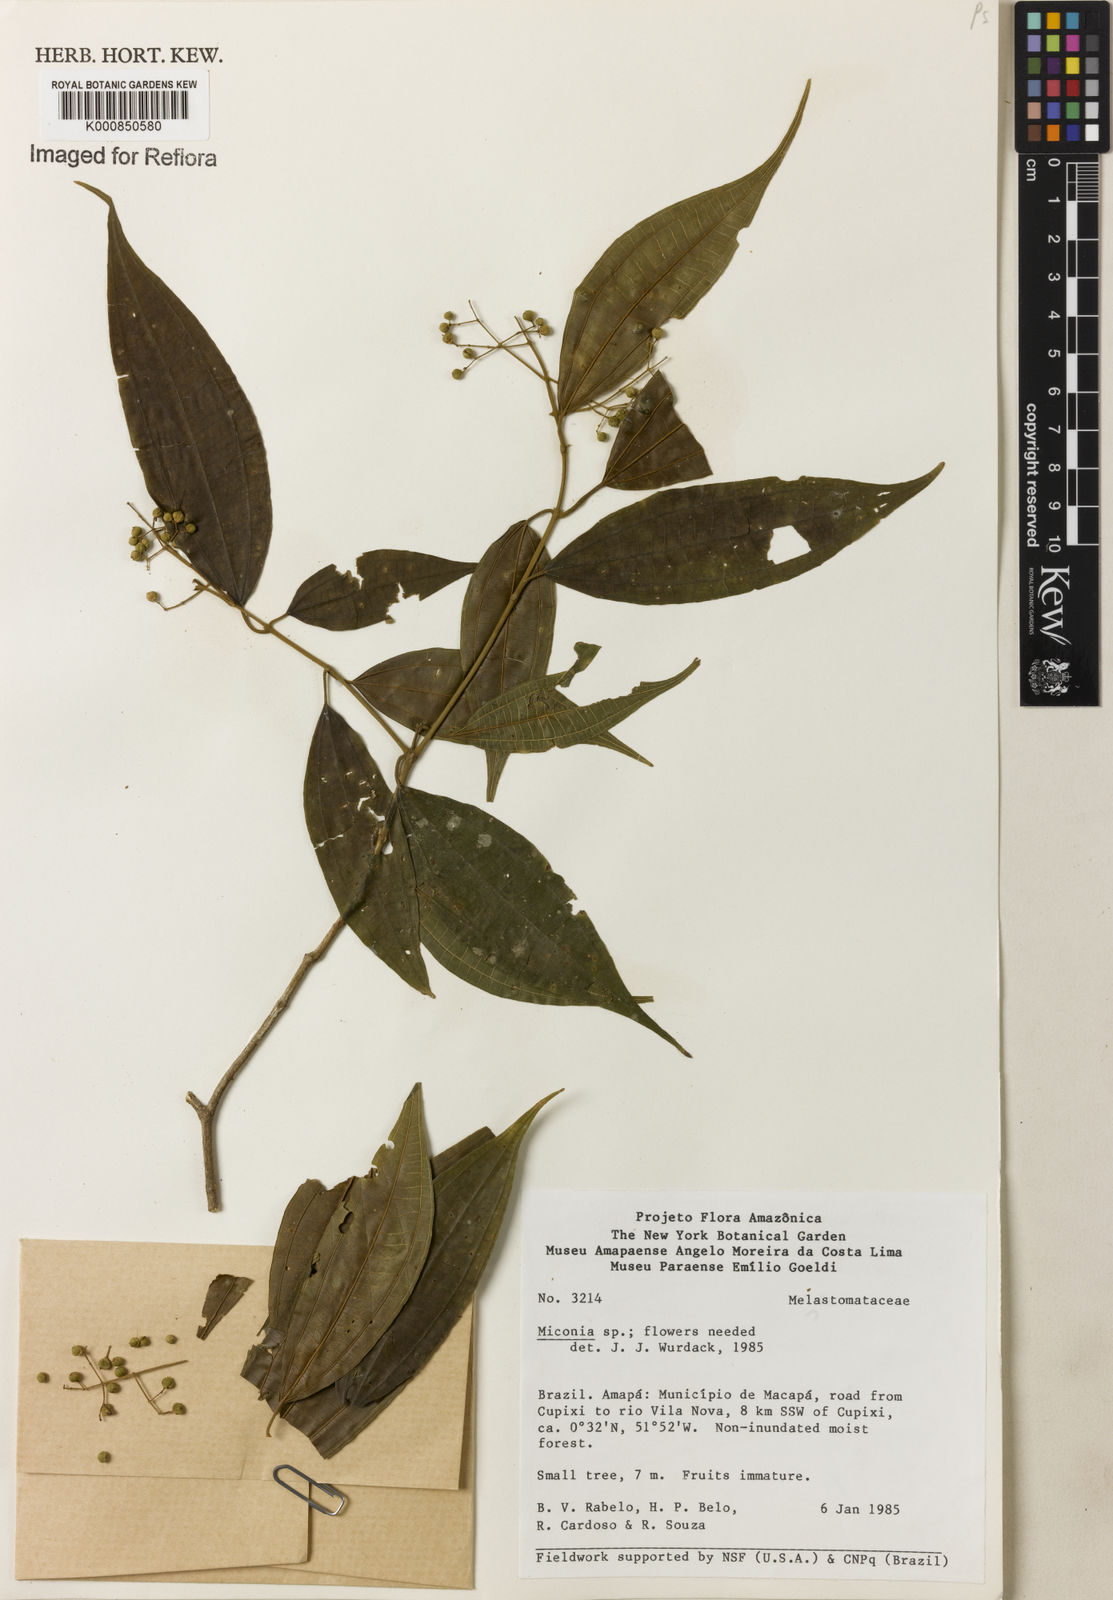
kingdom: Plantae
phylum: Tracheophyta
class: Magnoliopsida
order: Myrtales
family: Melastomataceae
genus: Miconia
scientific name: Miconia
